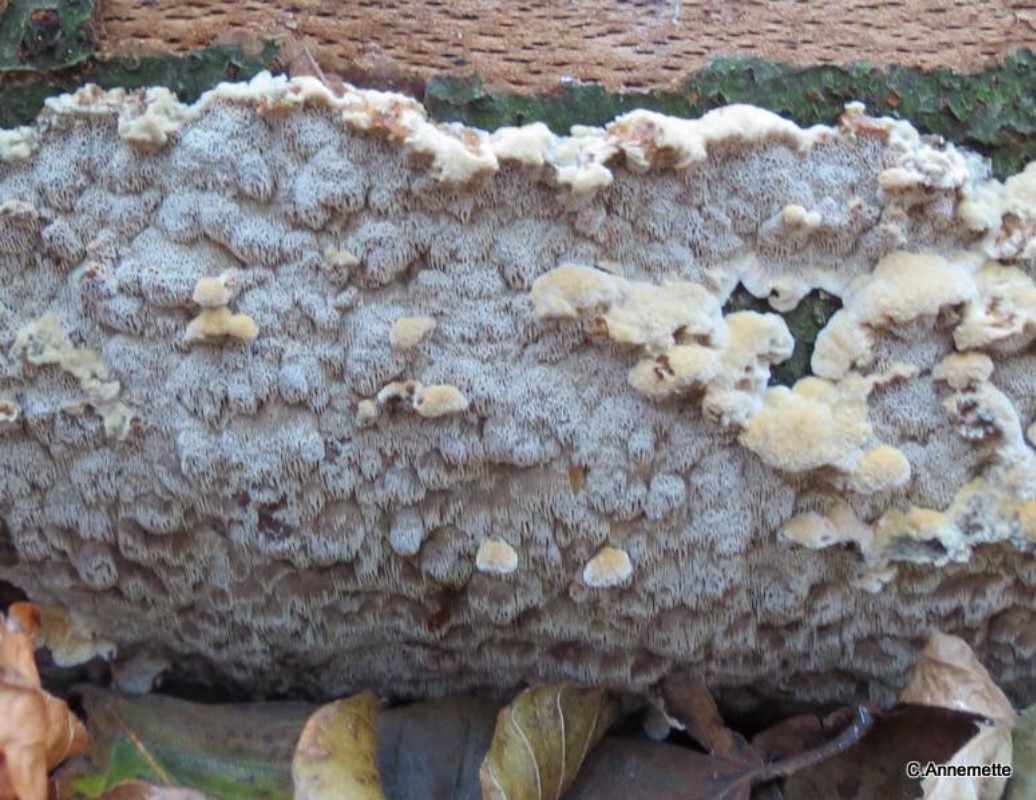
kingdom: Fungi
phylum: Basidiomycota
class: Agaricomycetes
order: Hymenochaetales
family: Hymenochaetaceae
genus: Mensularia
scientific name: Mensularia nodulosa
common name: bøge-spejlporesvamp
